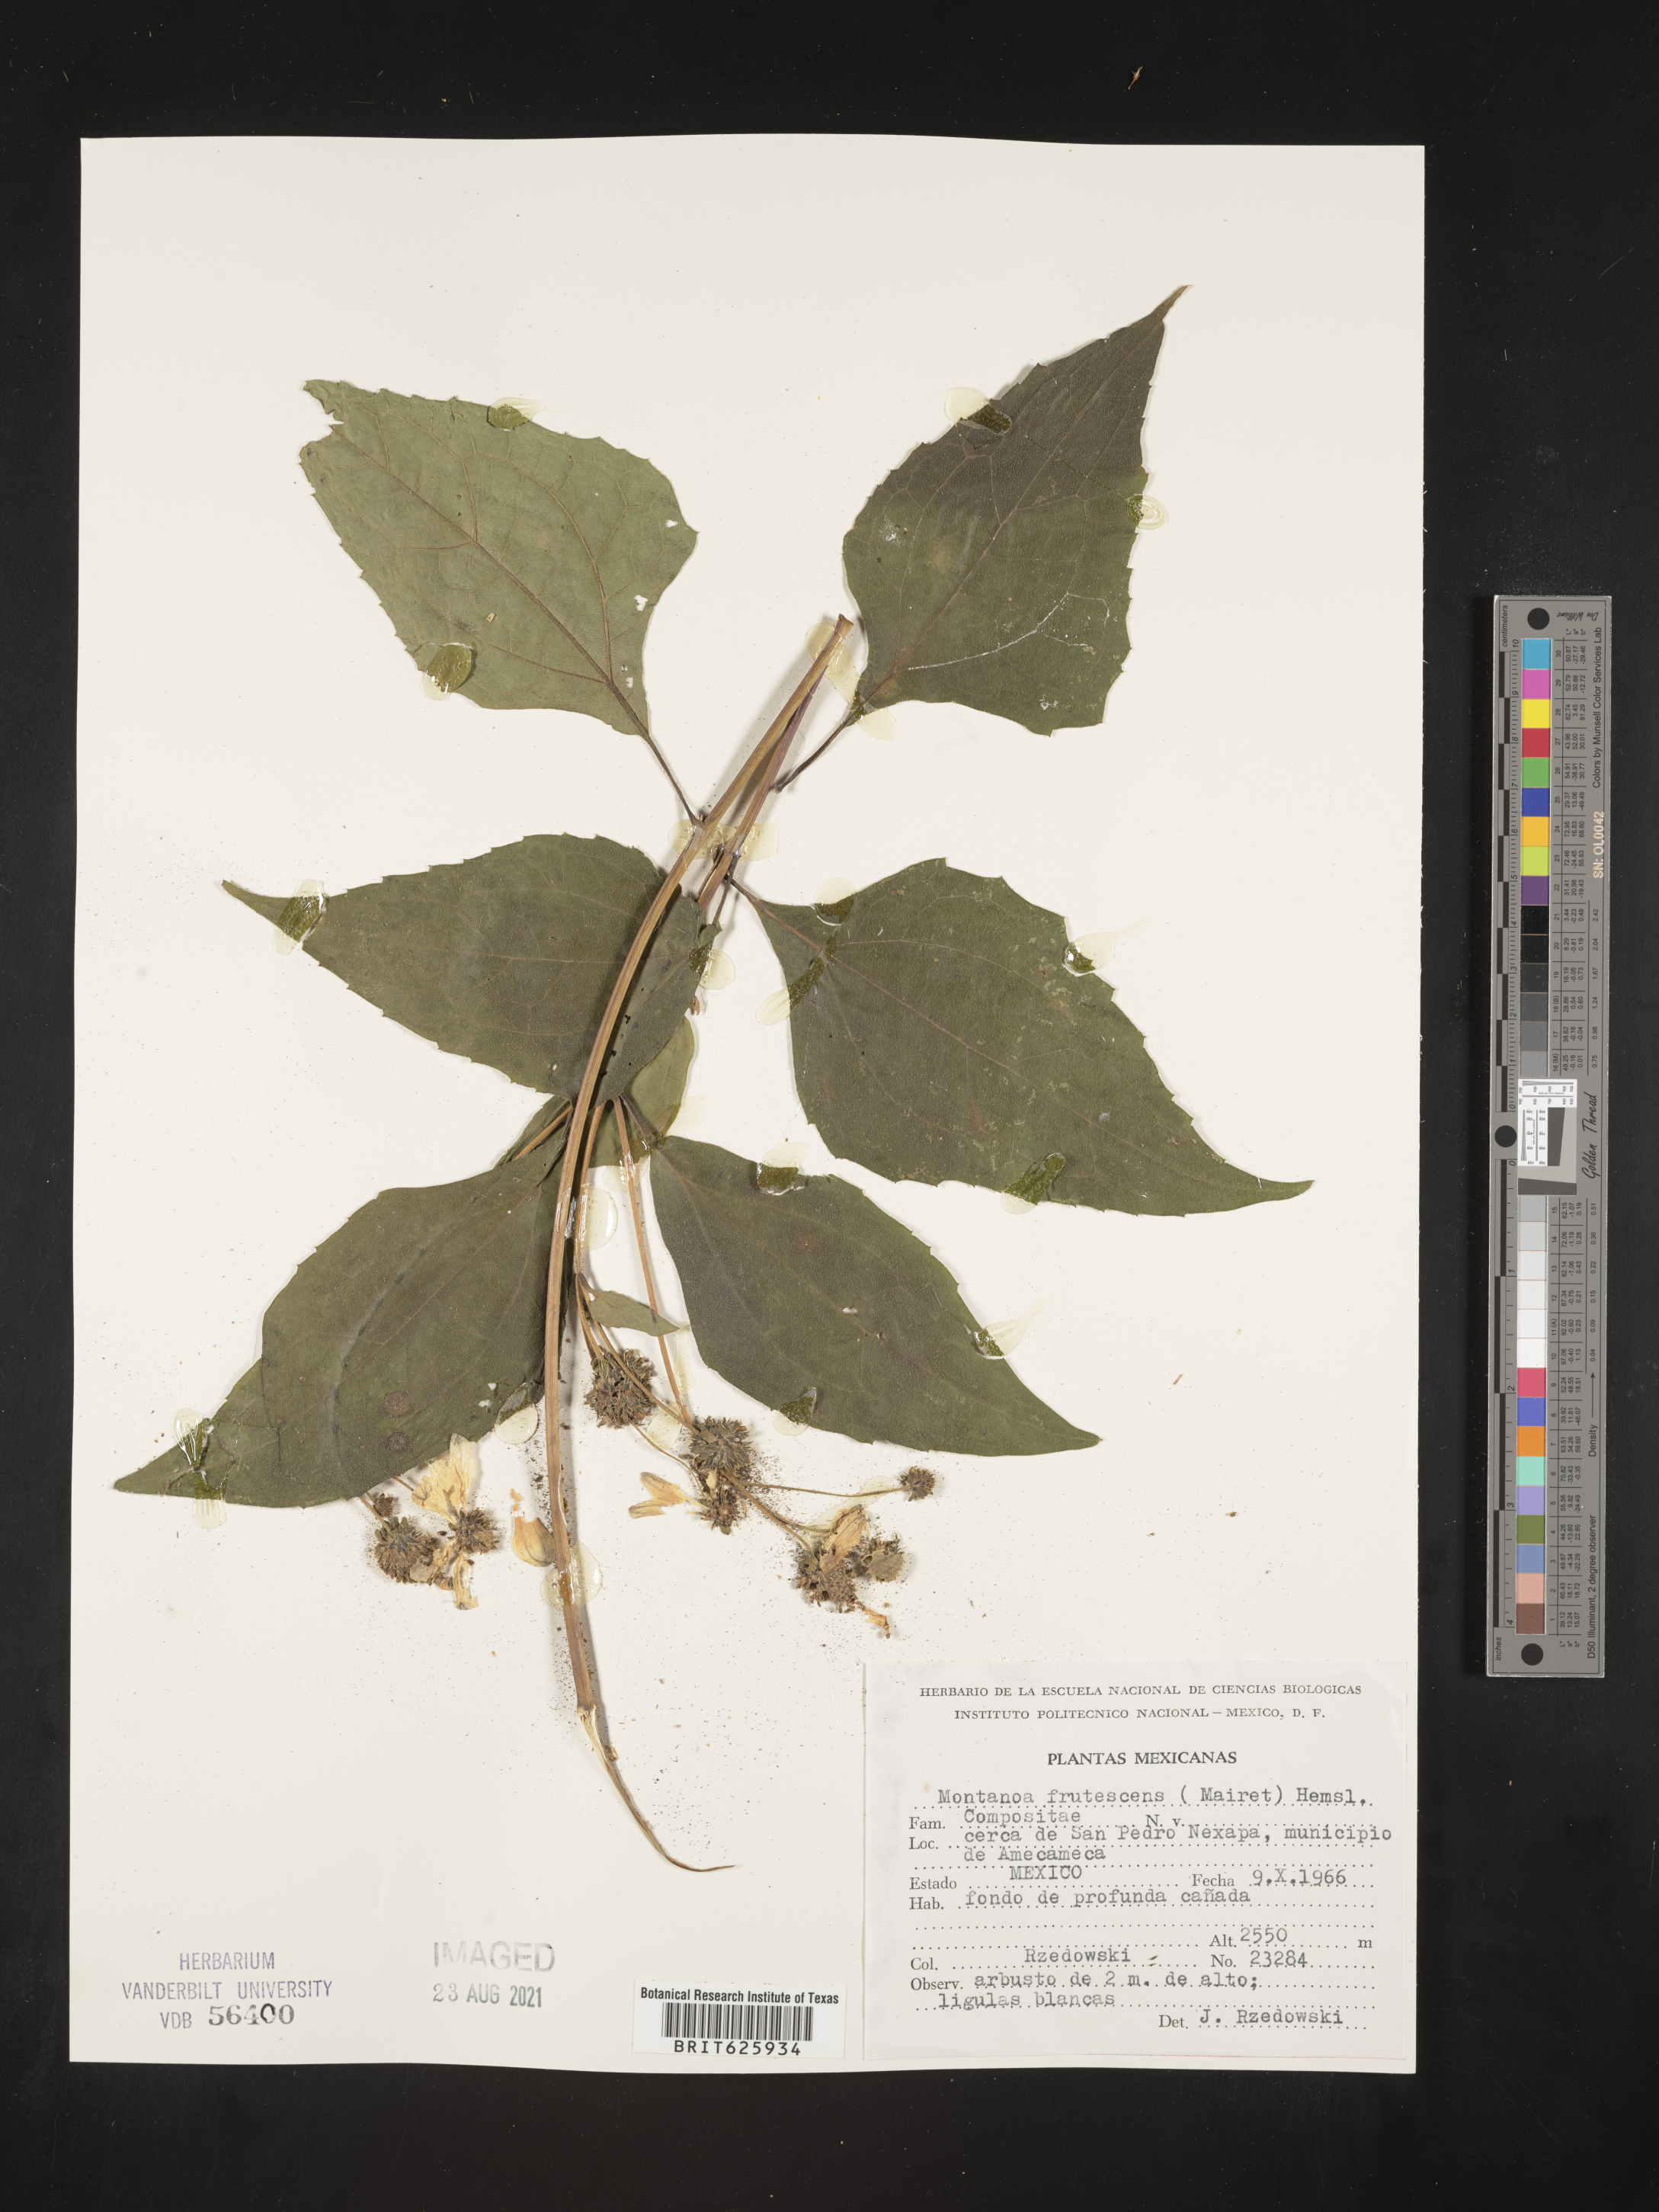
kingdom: Plantae
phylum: Tracheophyta
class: Magnoliopsida
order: Asterales
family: Asteraceae
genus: Montanoa
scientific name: Montanoa
